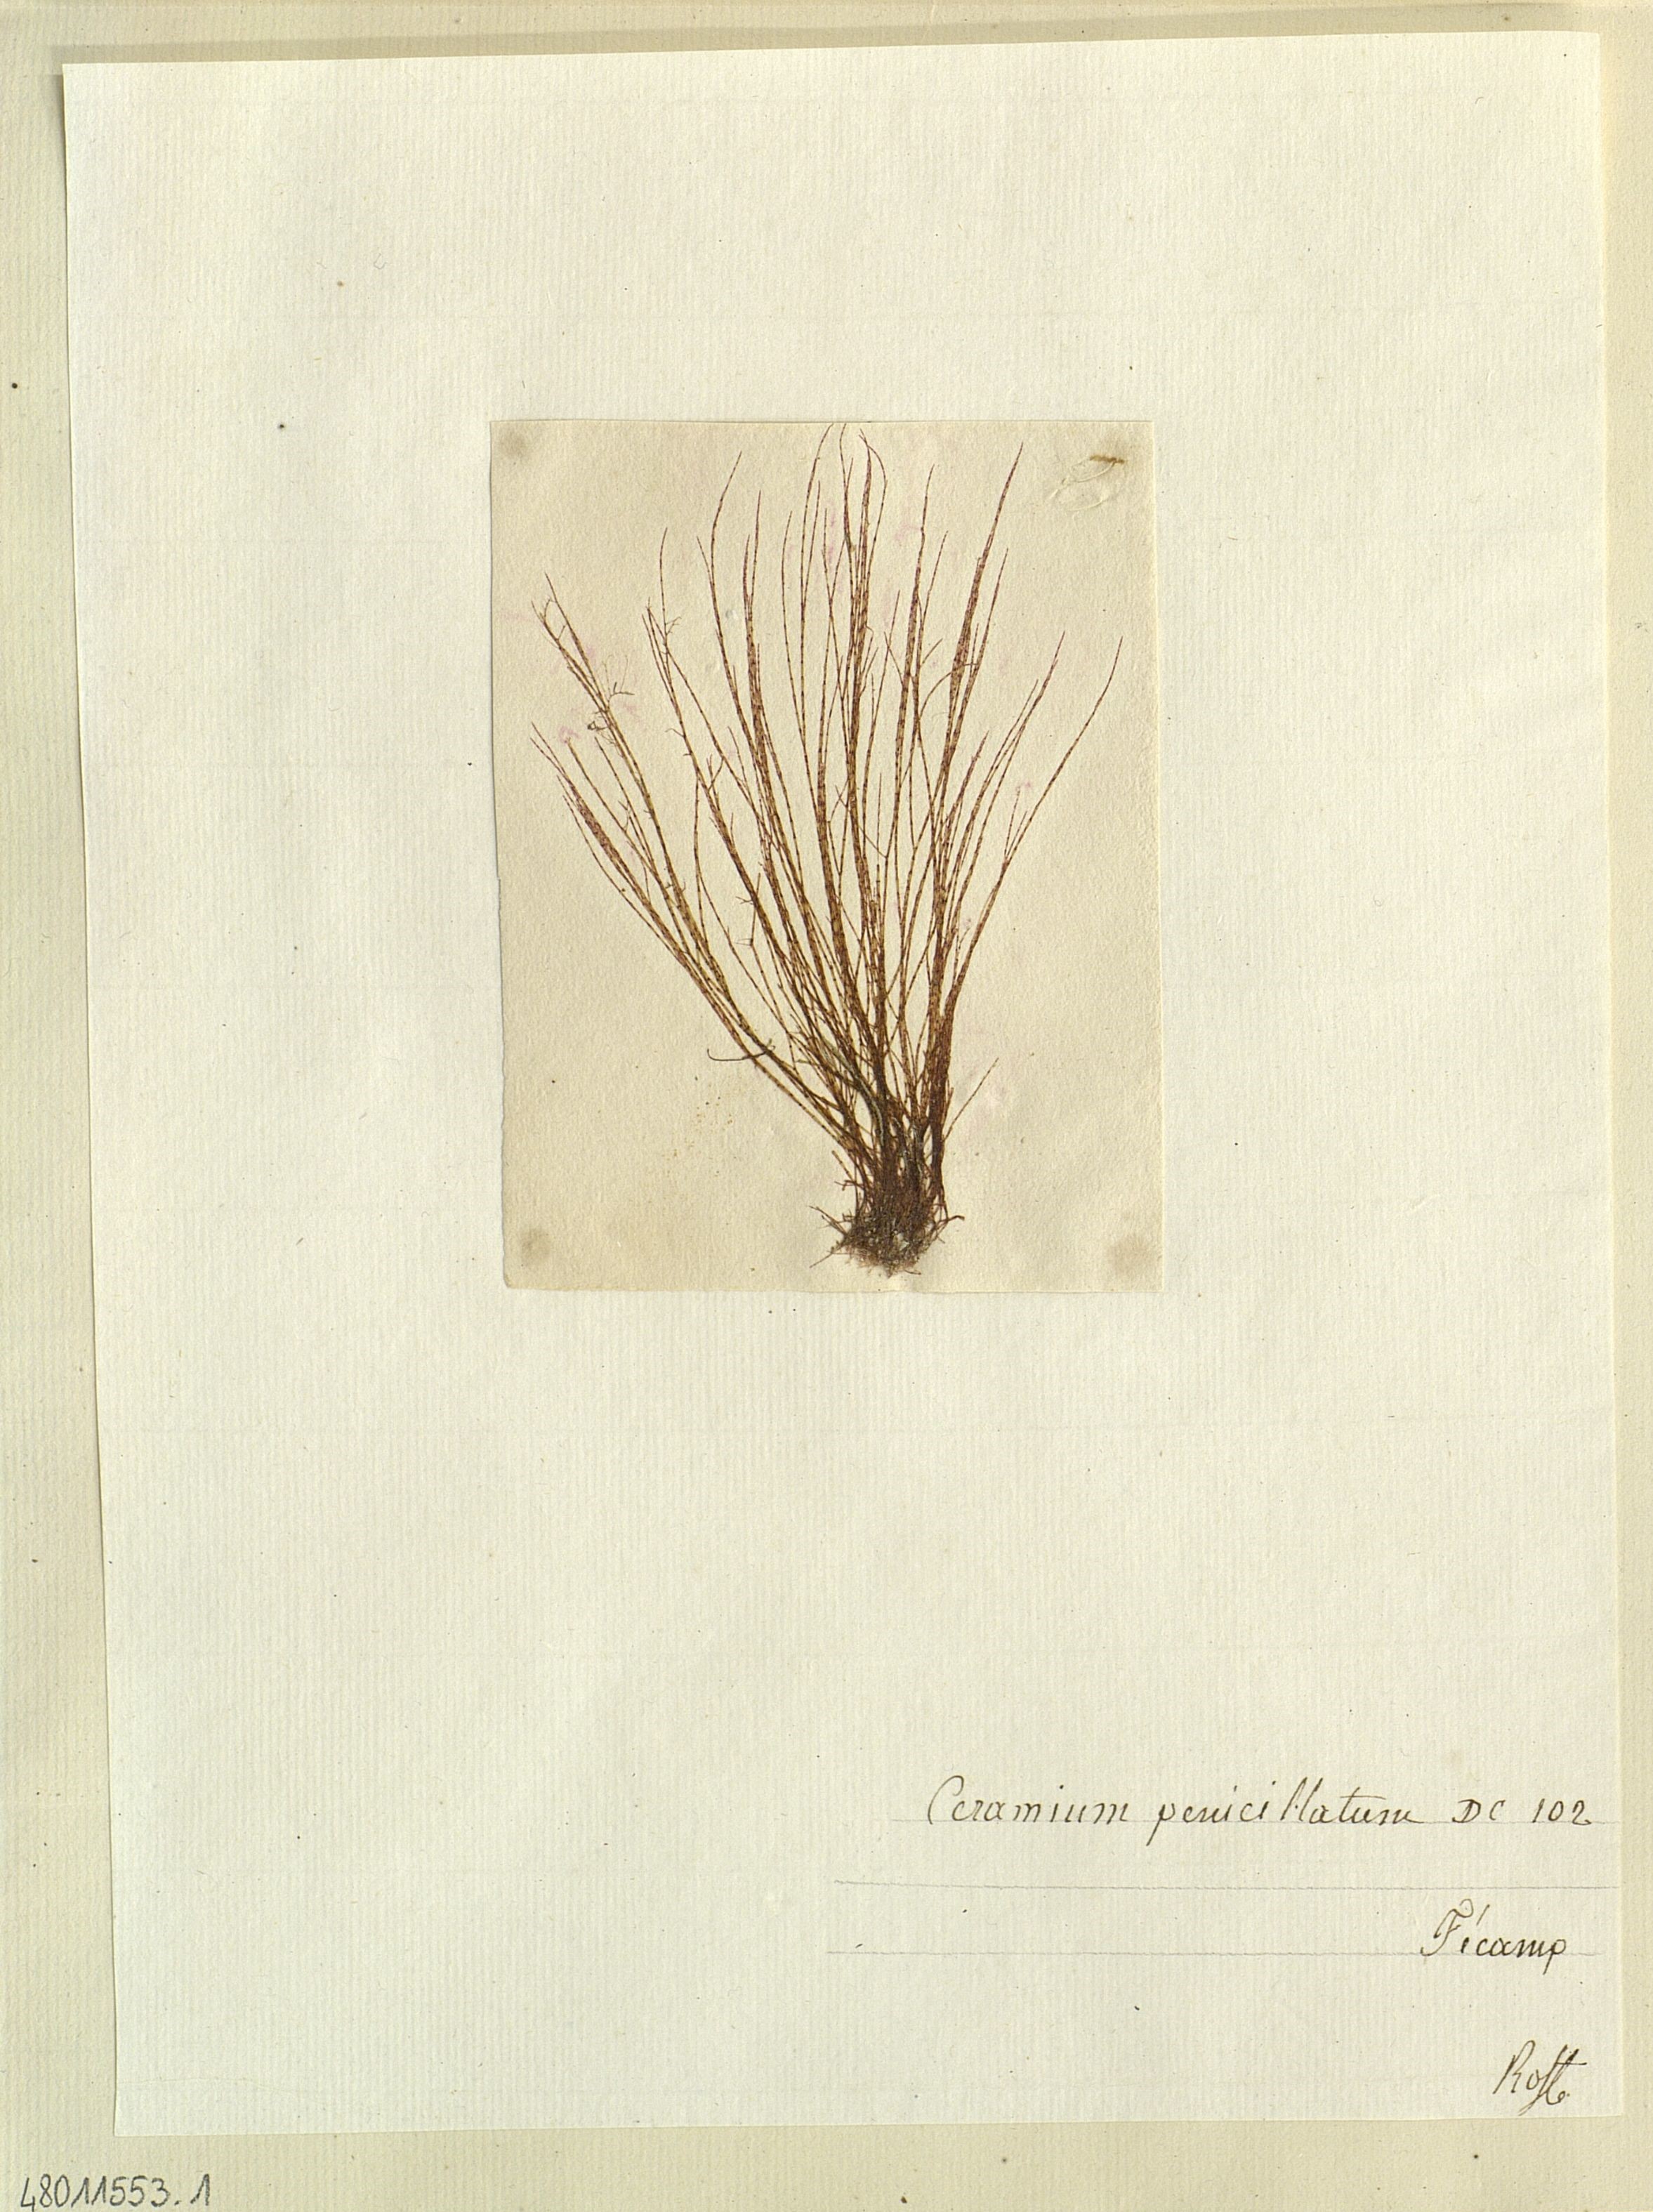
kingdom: Plantae
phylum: Rhodophyta
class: Florideophyceae
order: Ceramiales
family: Ceramiaceae
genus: Ceramium
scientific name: Ceramium penicillatum
